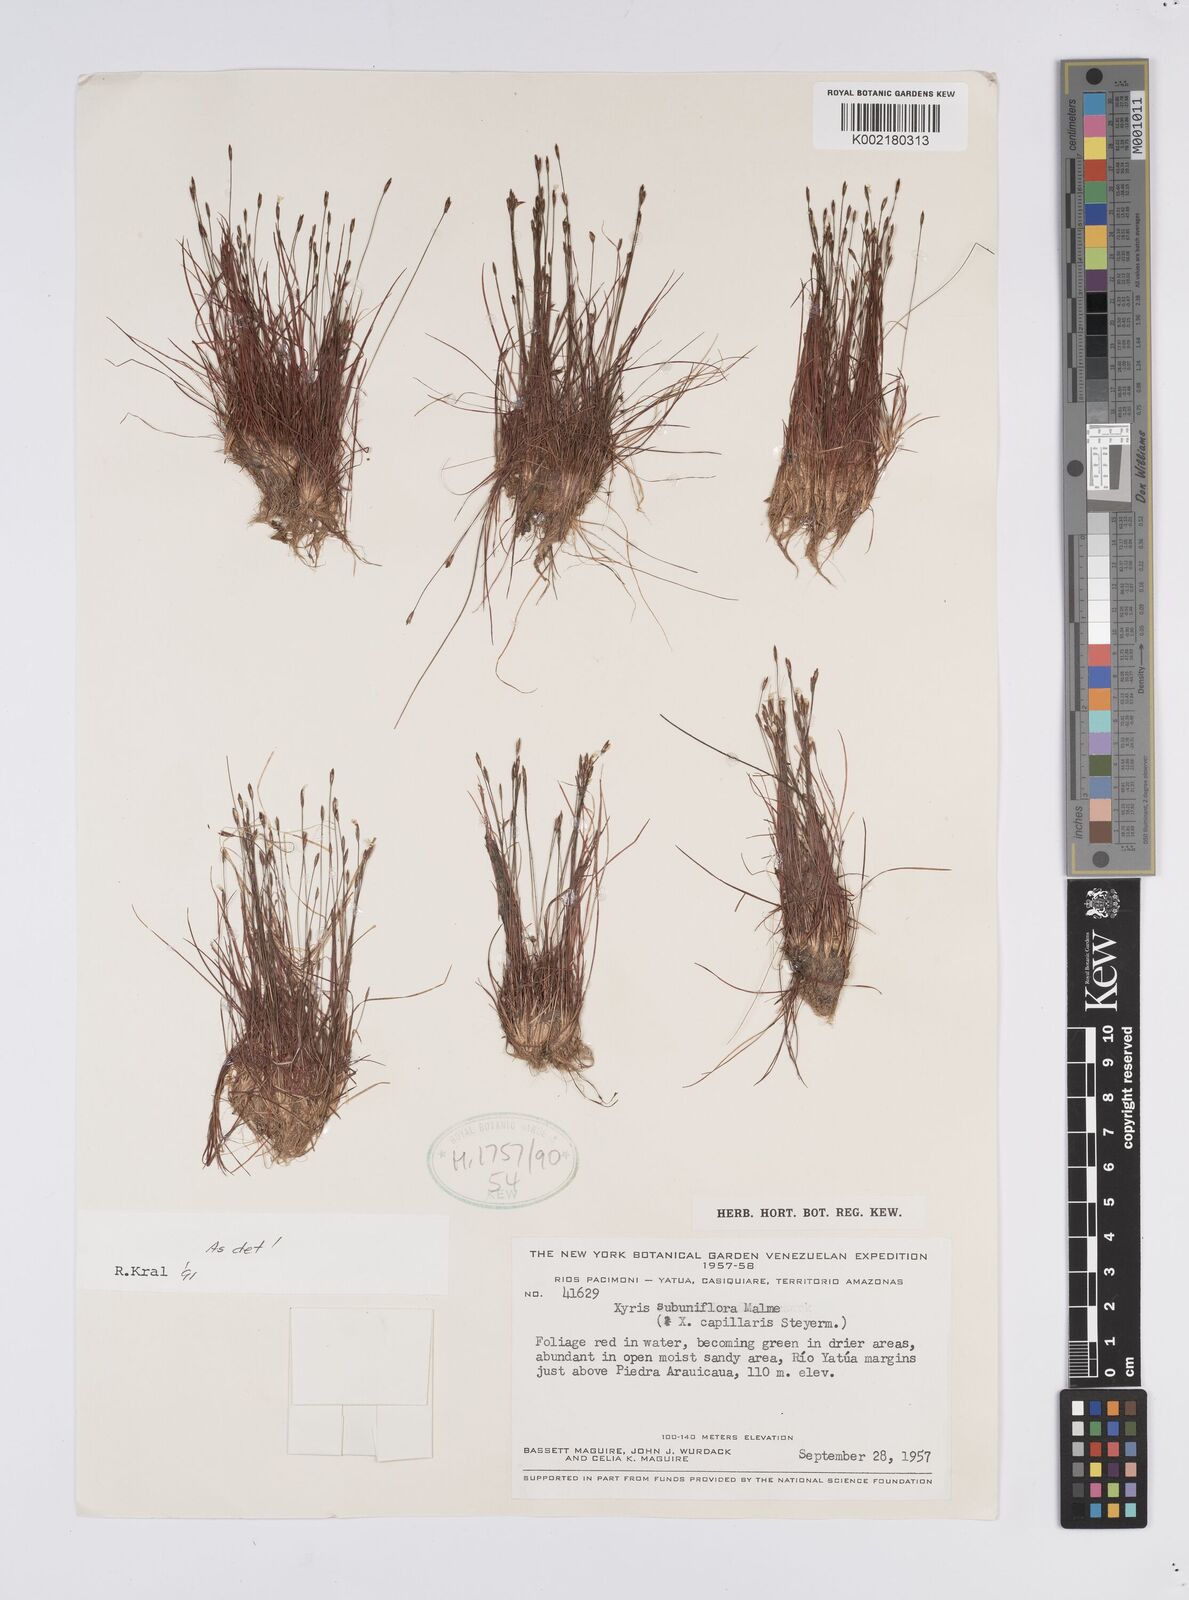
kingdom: Plantae
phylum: Tracheophyta
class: Liliopsida
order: Poales
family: Xyridaceae
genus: Xyris
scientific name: Xyris subuniflora
